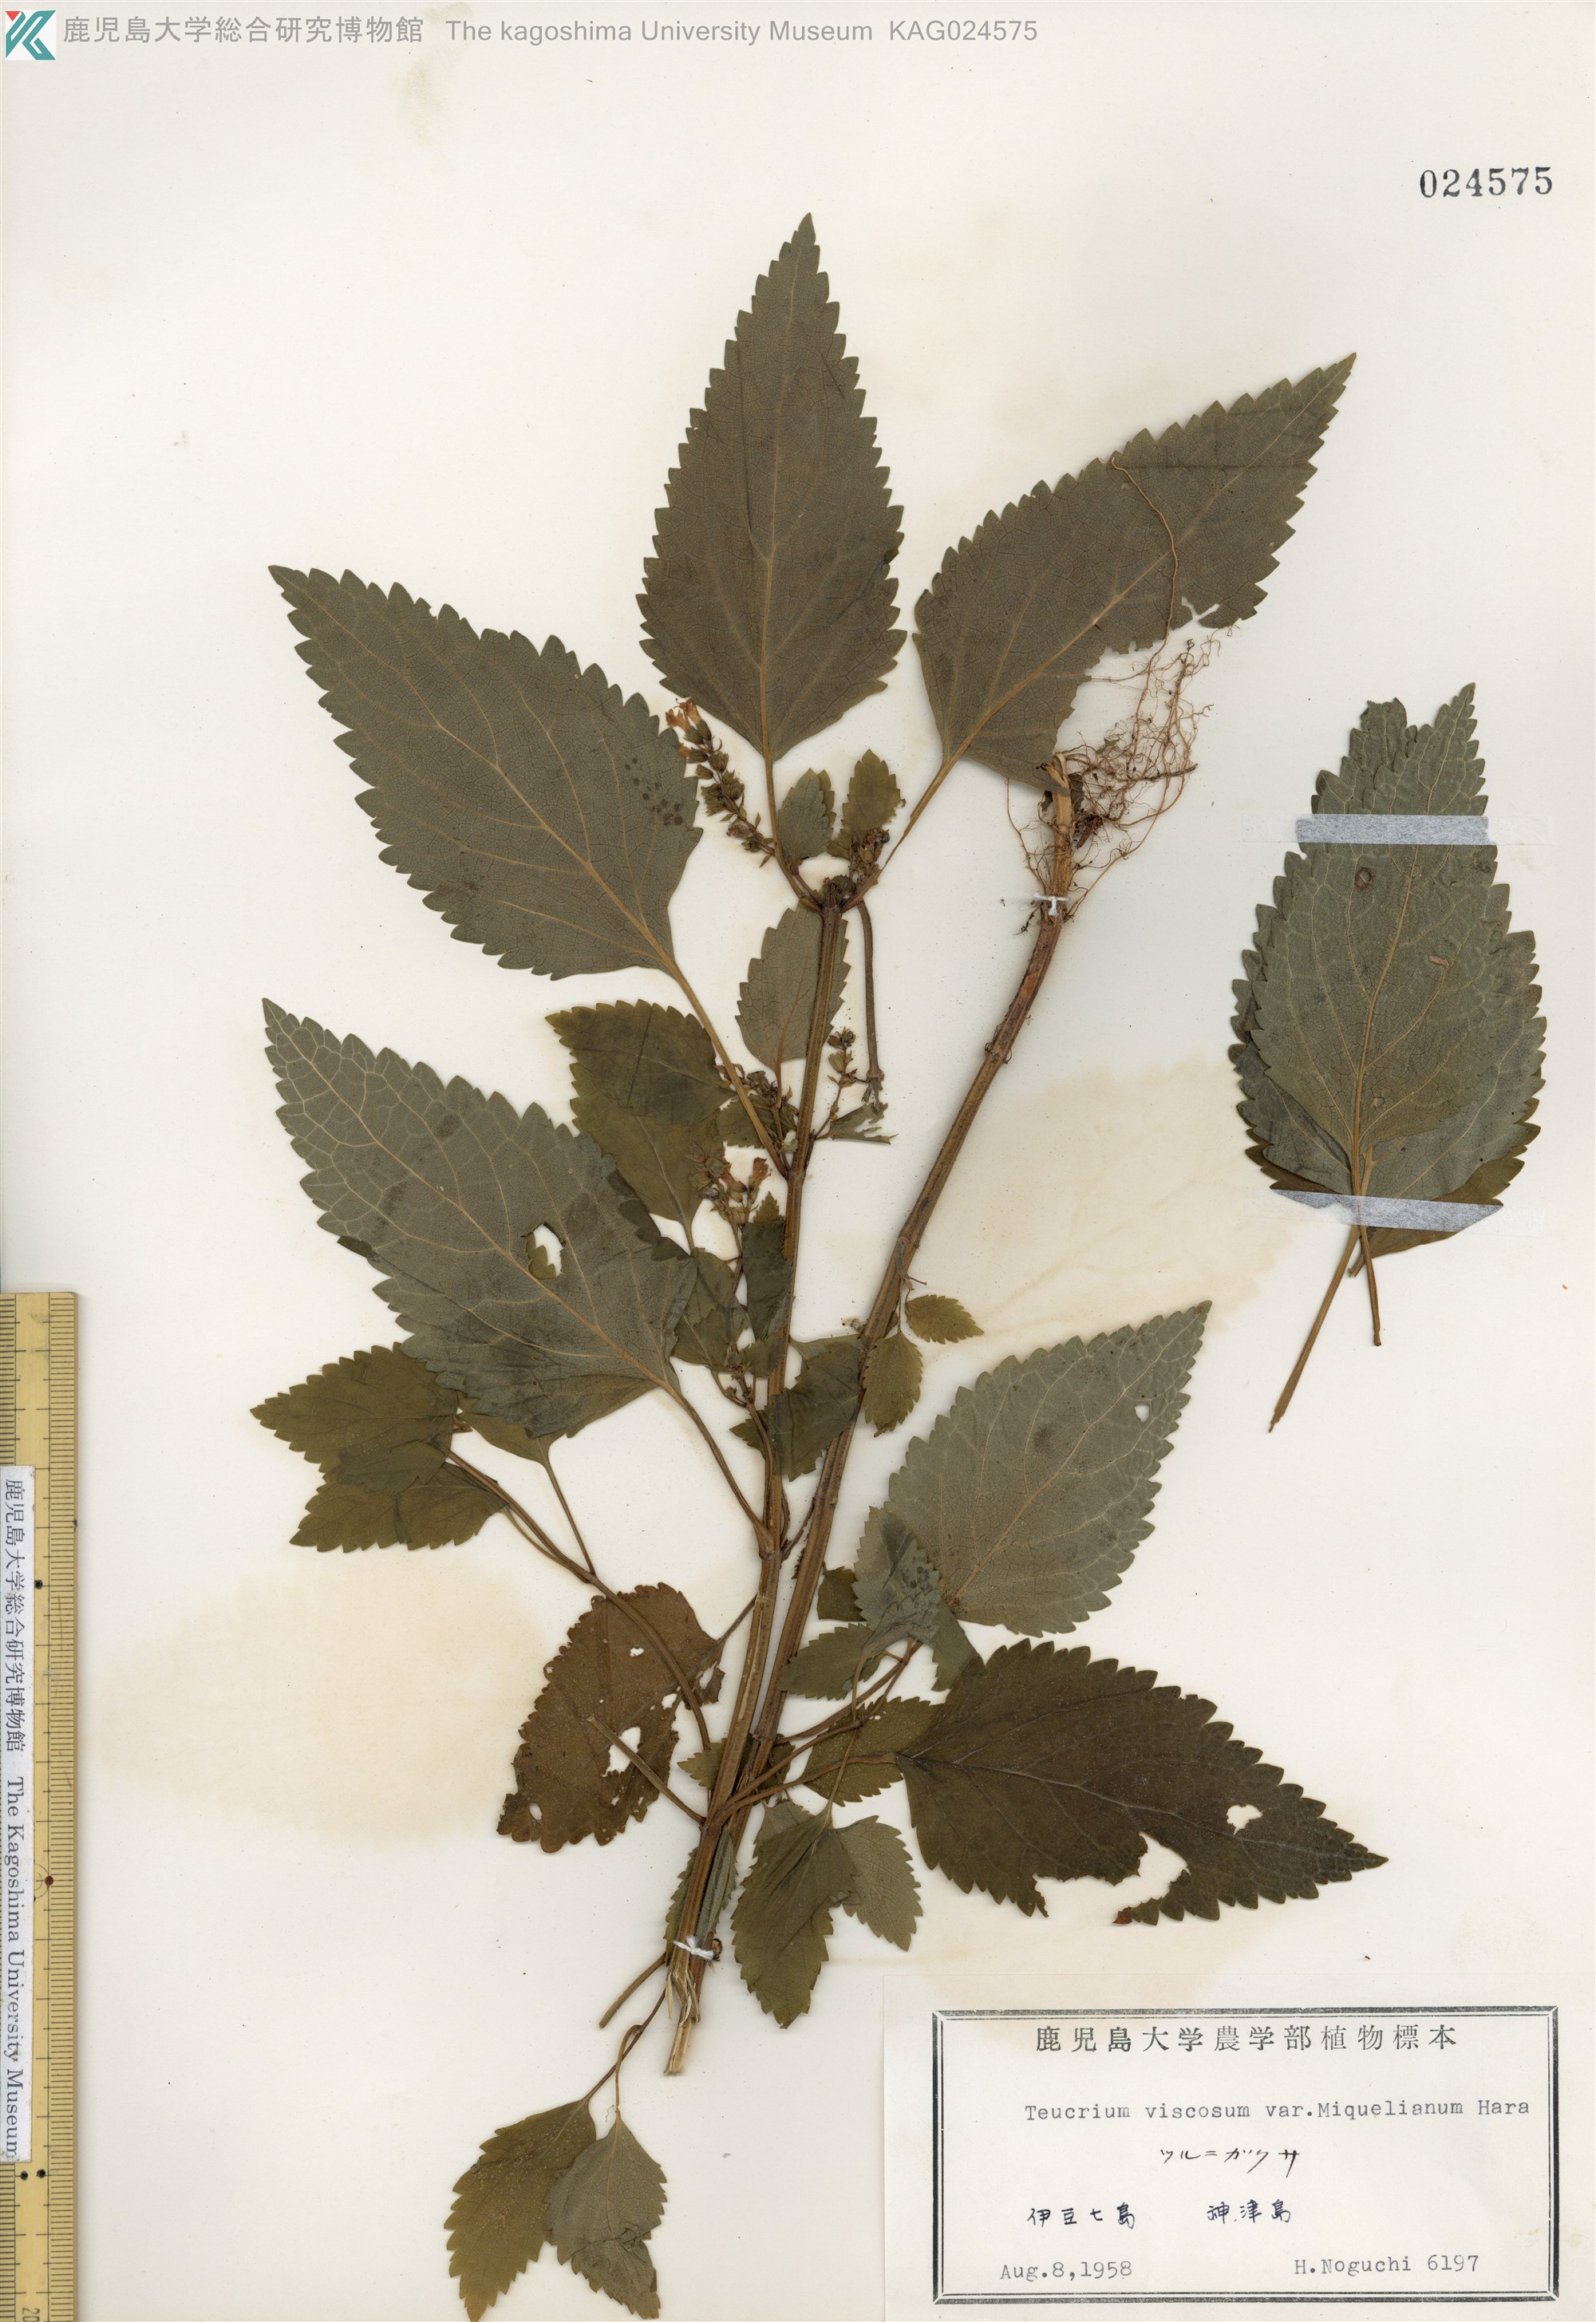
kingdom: Plantae
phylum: Tracheophyta
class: Magnoliopsida
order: Lamiales
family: Lamiaceae
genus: Teucrium
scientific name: Teucrium viscidum
